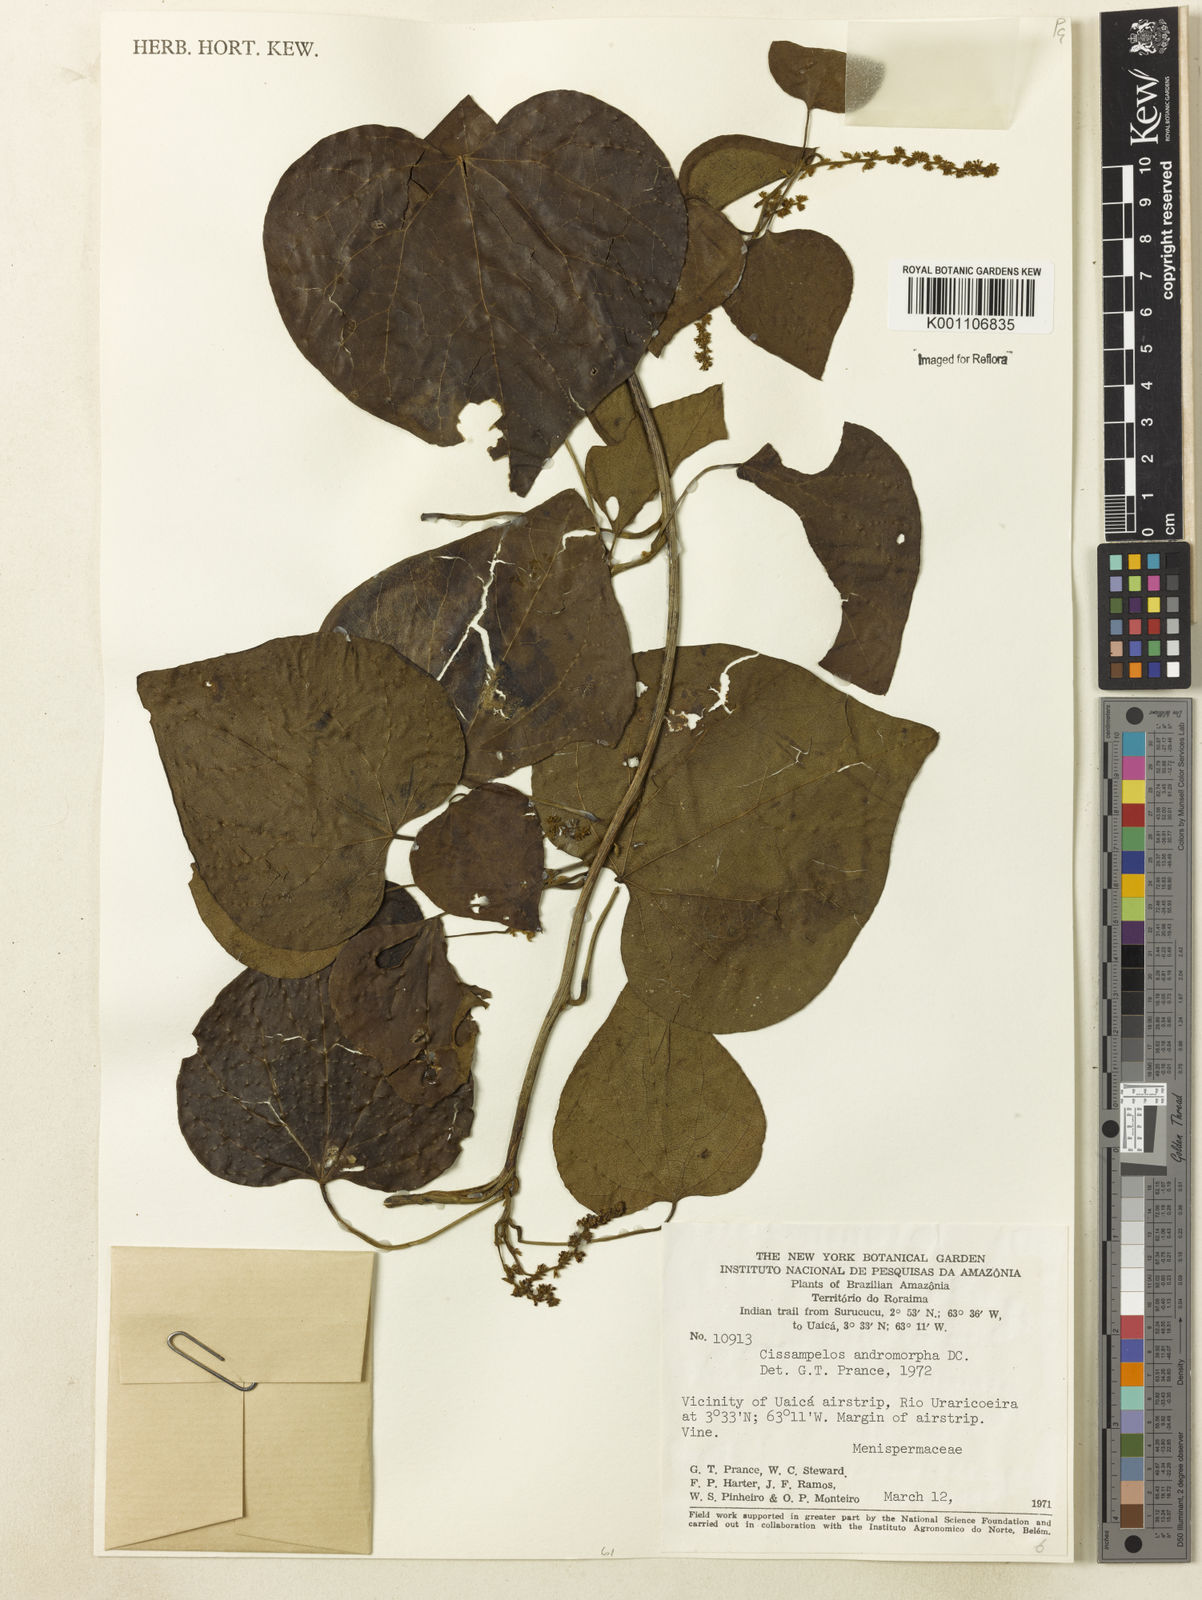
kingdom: Plantae
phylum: Tracheophyta
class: Magnoliopsida
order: Ranunculales
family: Menispermaceae
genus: Cissampelos
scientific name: Cissampelos andromorpha
